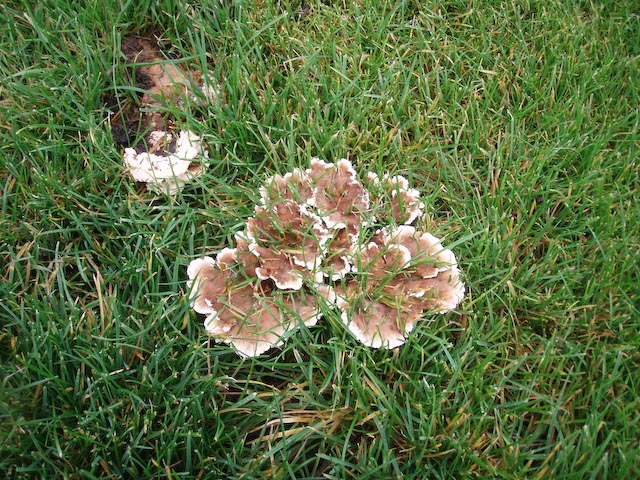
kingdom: Fungi
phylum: Basidiomycota
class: Agaricomycetes
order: Polyporales
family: Podoscyphaceae
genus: Abortiporus
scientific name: Abortiporus biennis
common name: rødmende pjalteporesvamp
